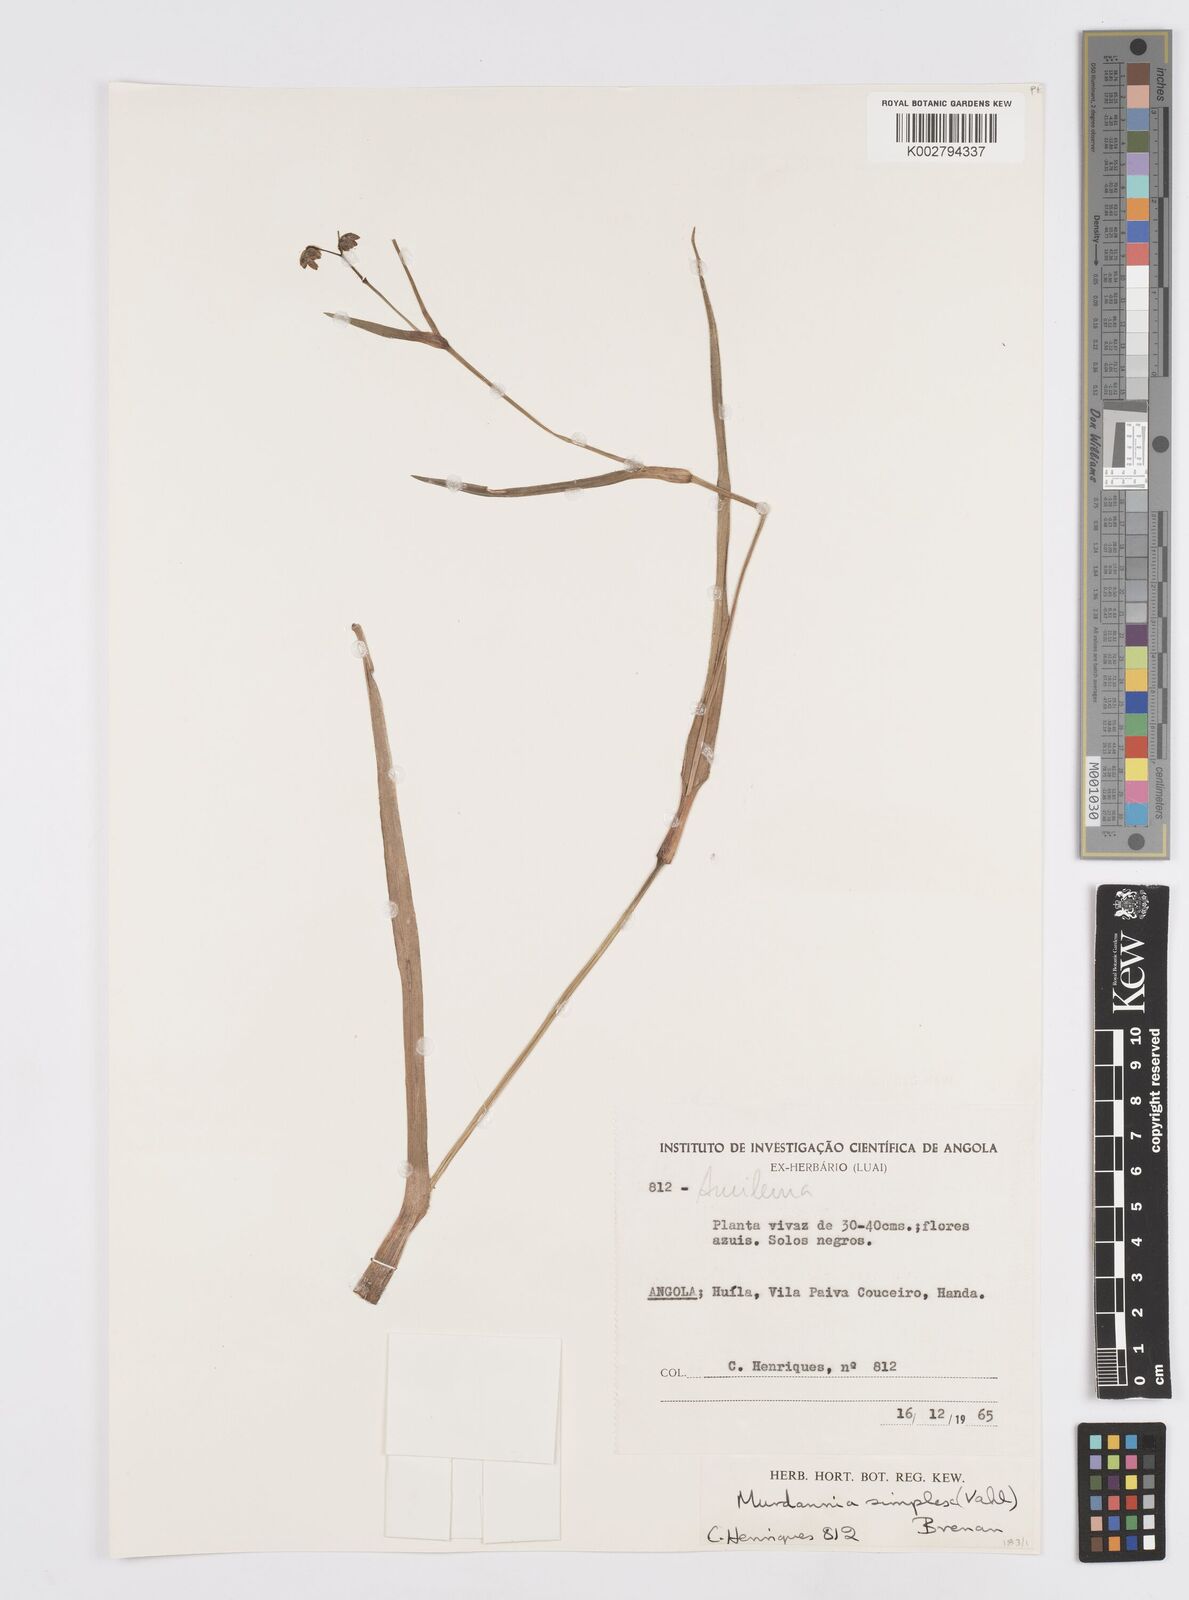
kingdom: Plantae
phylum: Tracheophyta
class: Liliopsida
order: Commelinales
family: Commelinaceae
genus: Murdannia
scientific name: Murdannia simplex
